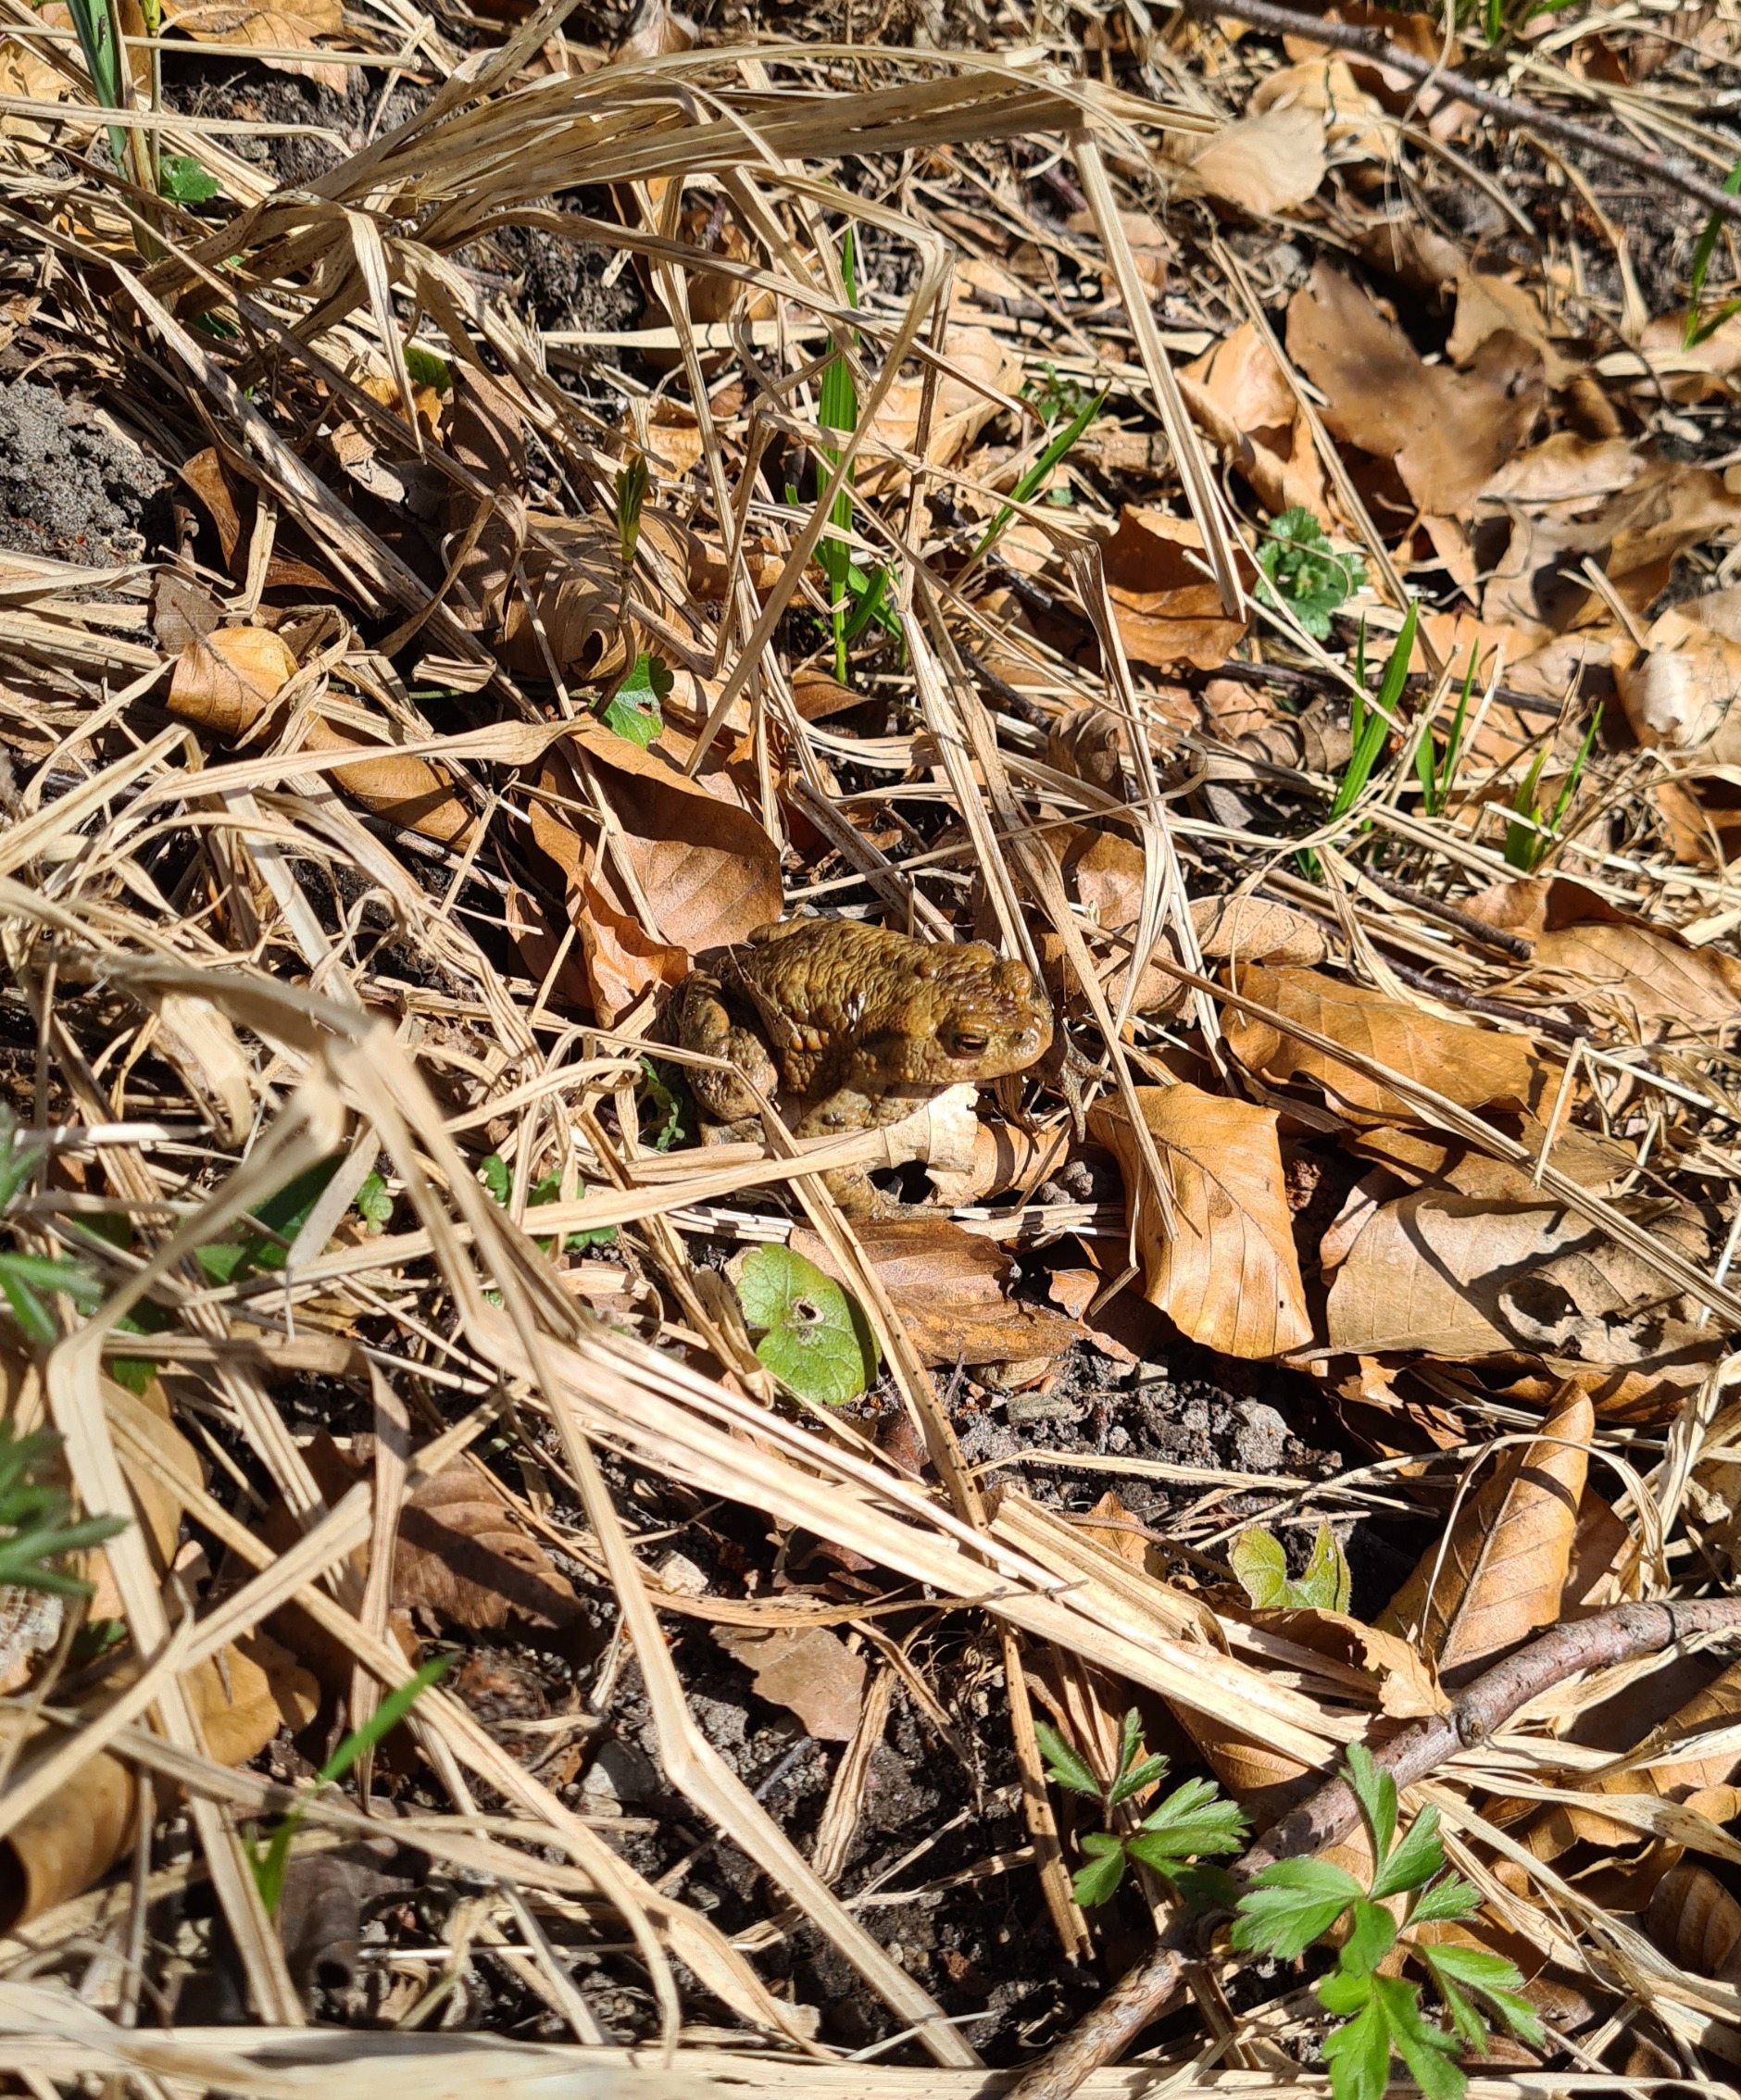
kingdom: Animalia
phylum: Chordata
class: Amphibia
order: Anura
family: Bufonidae
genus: Bufo
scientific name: Bufo bufo
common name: Skrubtudse
